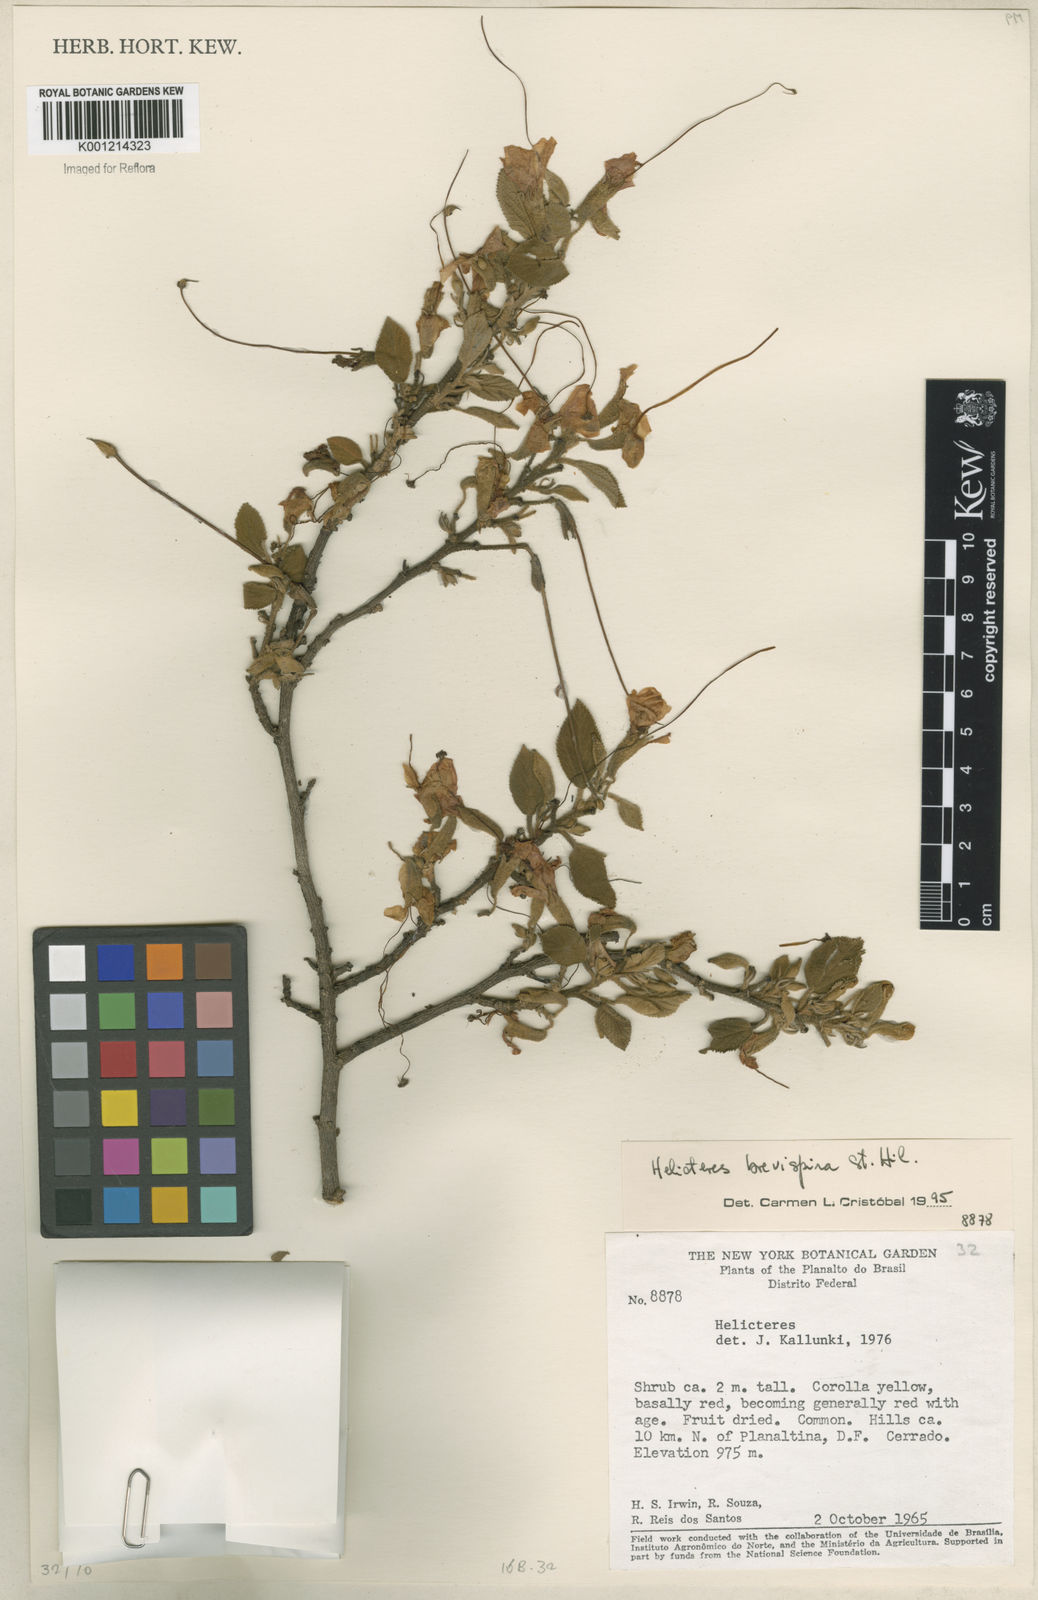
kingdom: Plantae
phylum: Tracheophyta
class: Magnoliopsida
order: Malvales
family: Malvaceae
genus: Helicteres
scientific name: Helicteres
